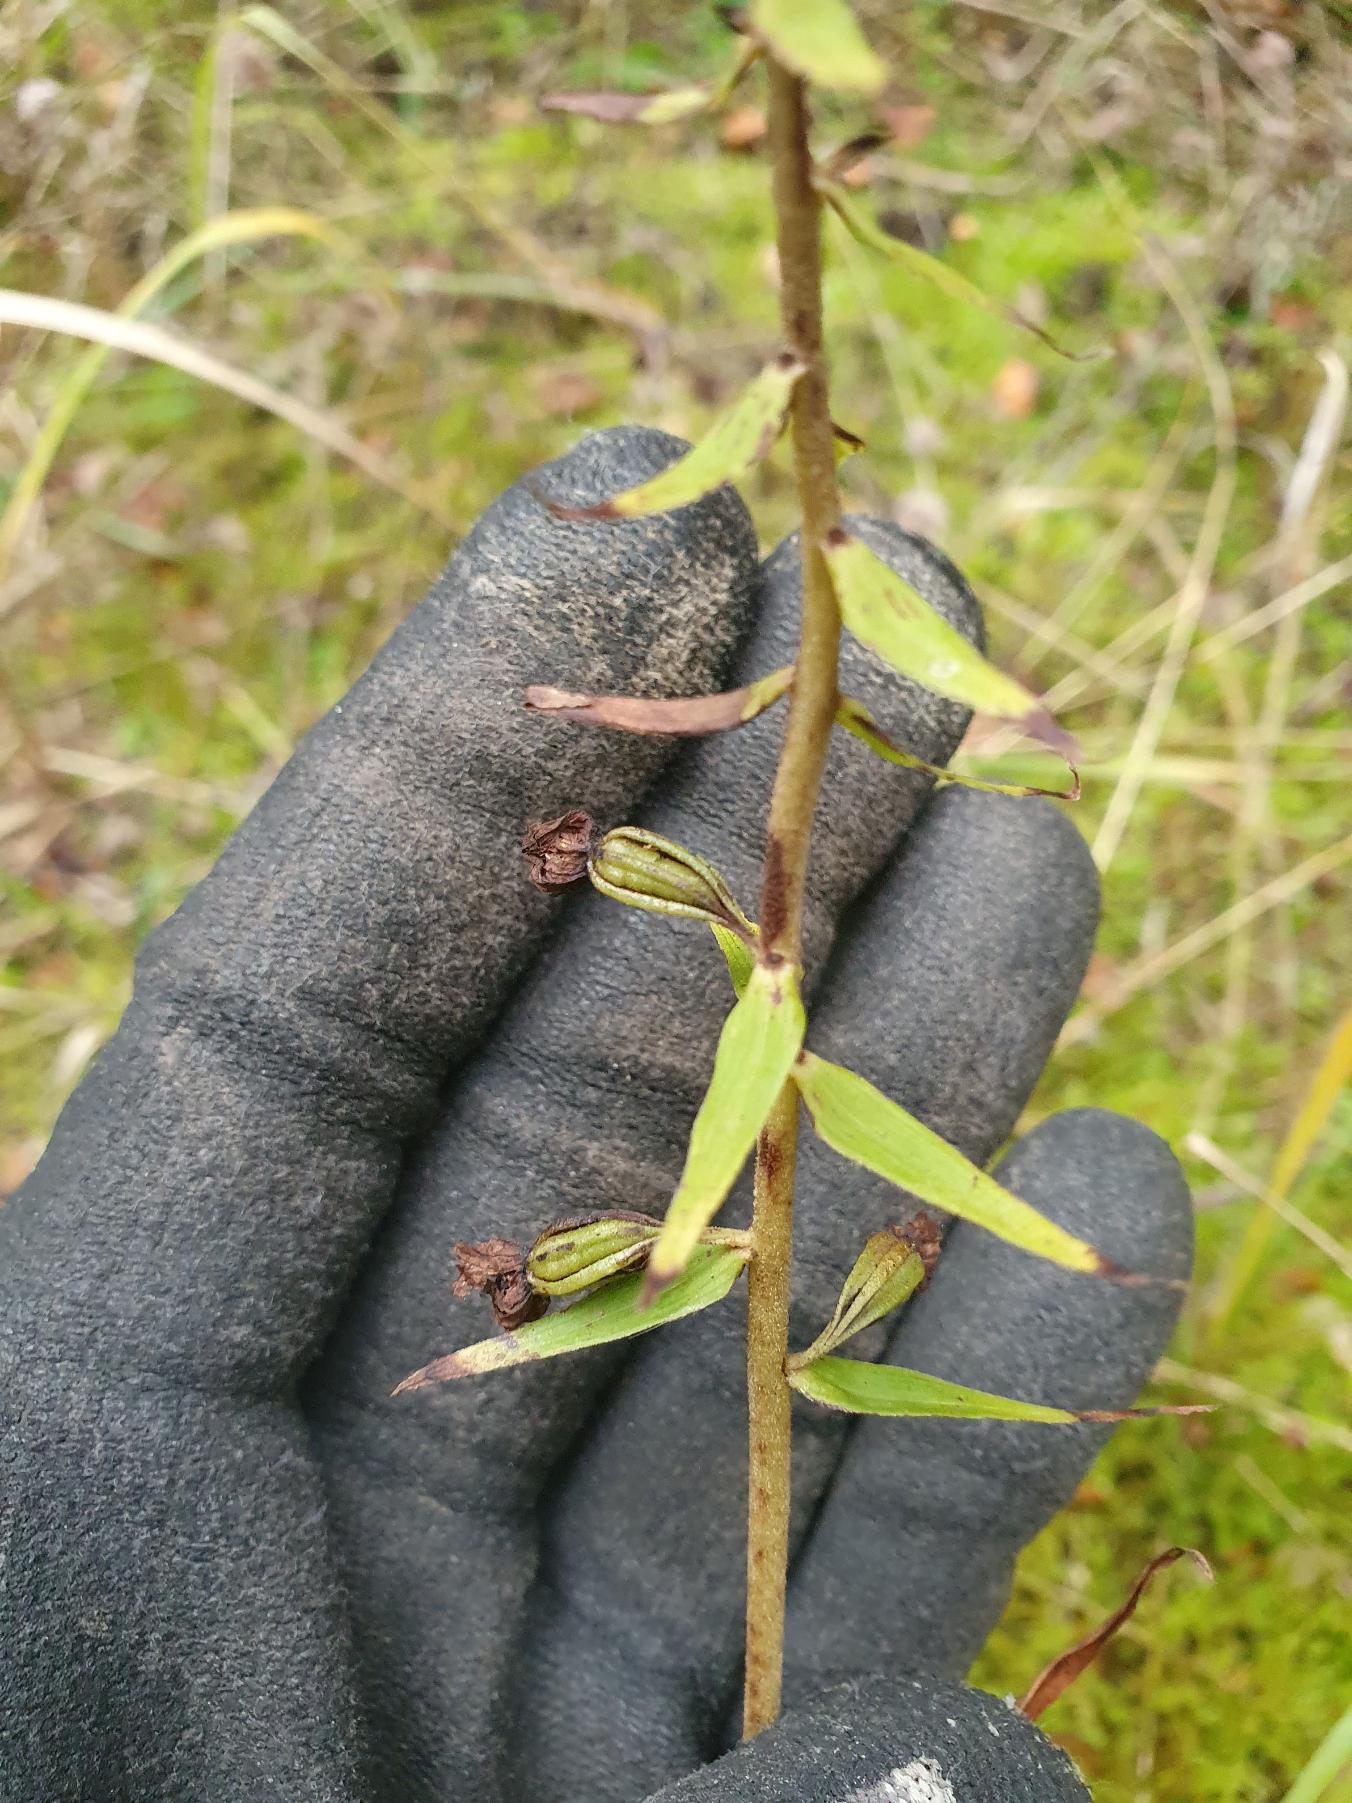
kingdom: Plantae
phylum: Tracheophyta
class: Liliopsida
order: Asparagales
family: Orchidaceae
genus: Epipactis
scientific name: Epipactis helleborine
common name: Skov-hullæbe
